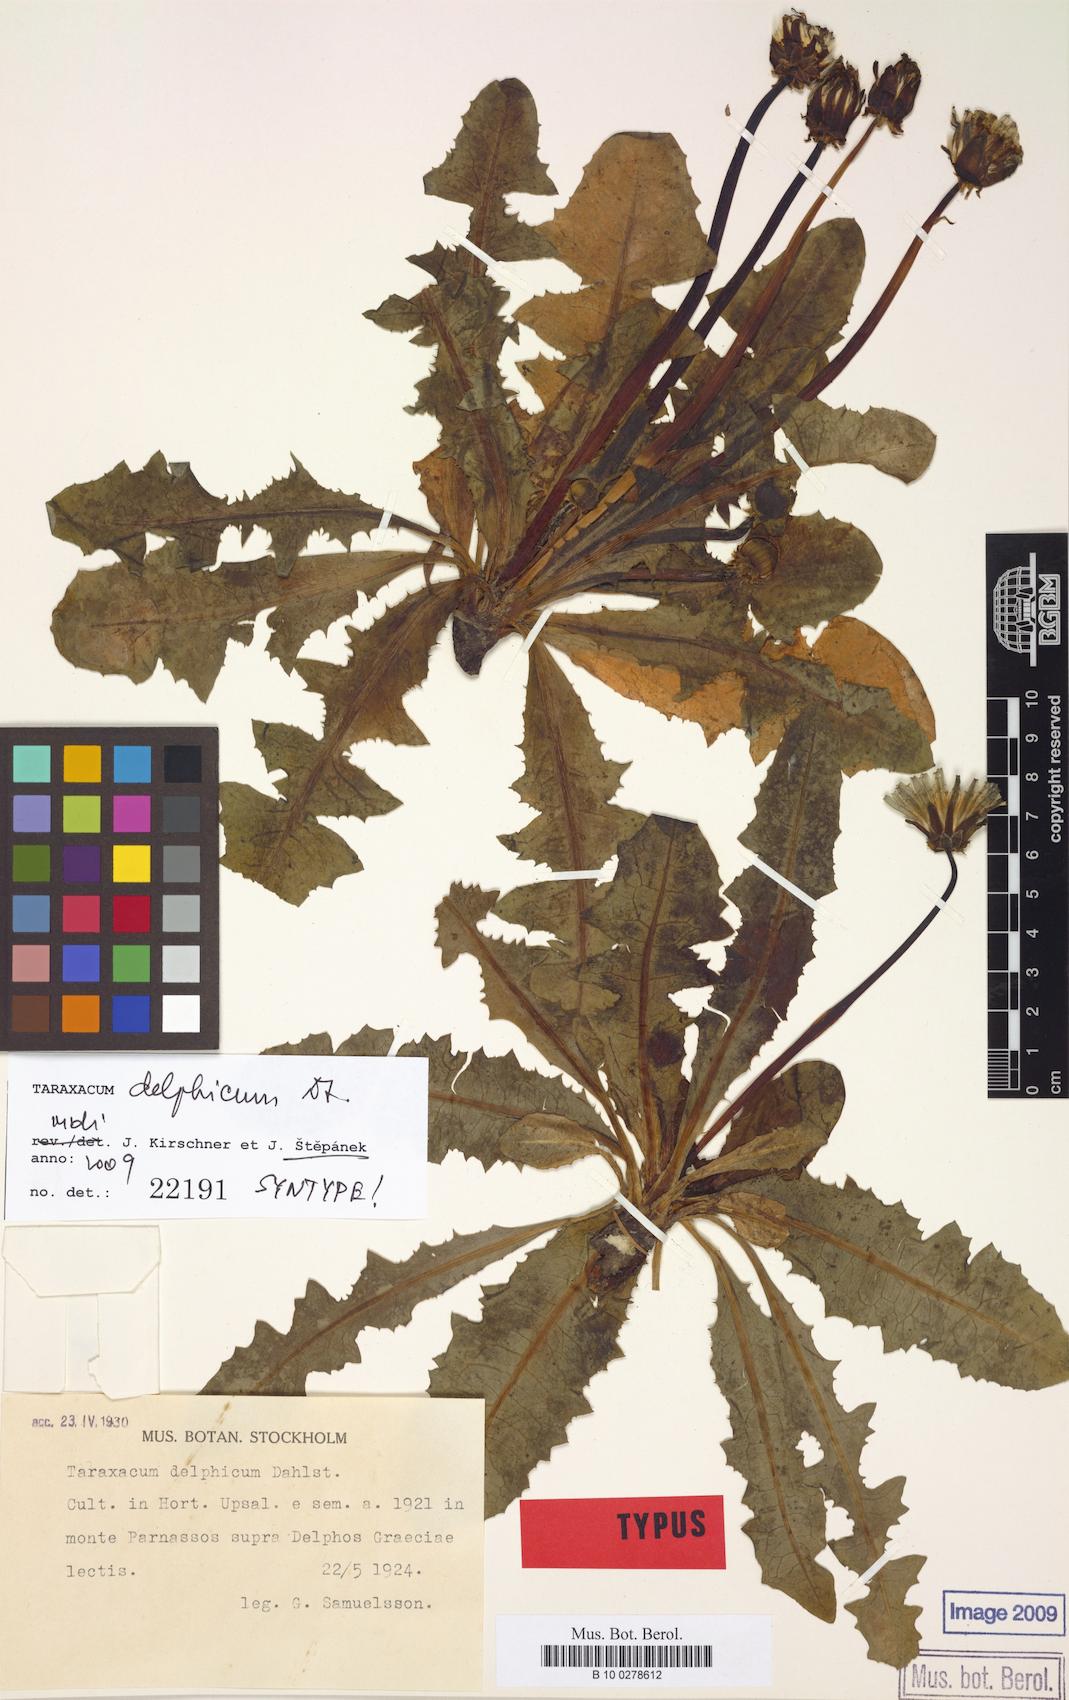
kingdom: Plantae
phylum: Tracheophyta
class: Magnoliopsida
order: Asterales
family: Asteraceae
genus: Taraxacum
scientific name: Taraxacum delphicum
